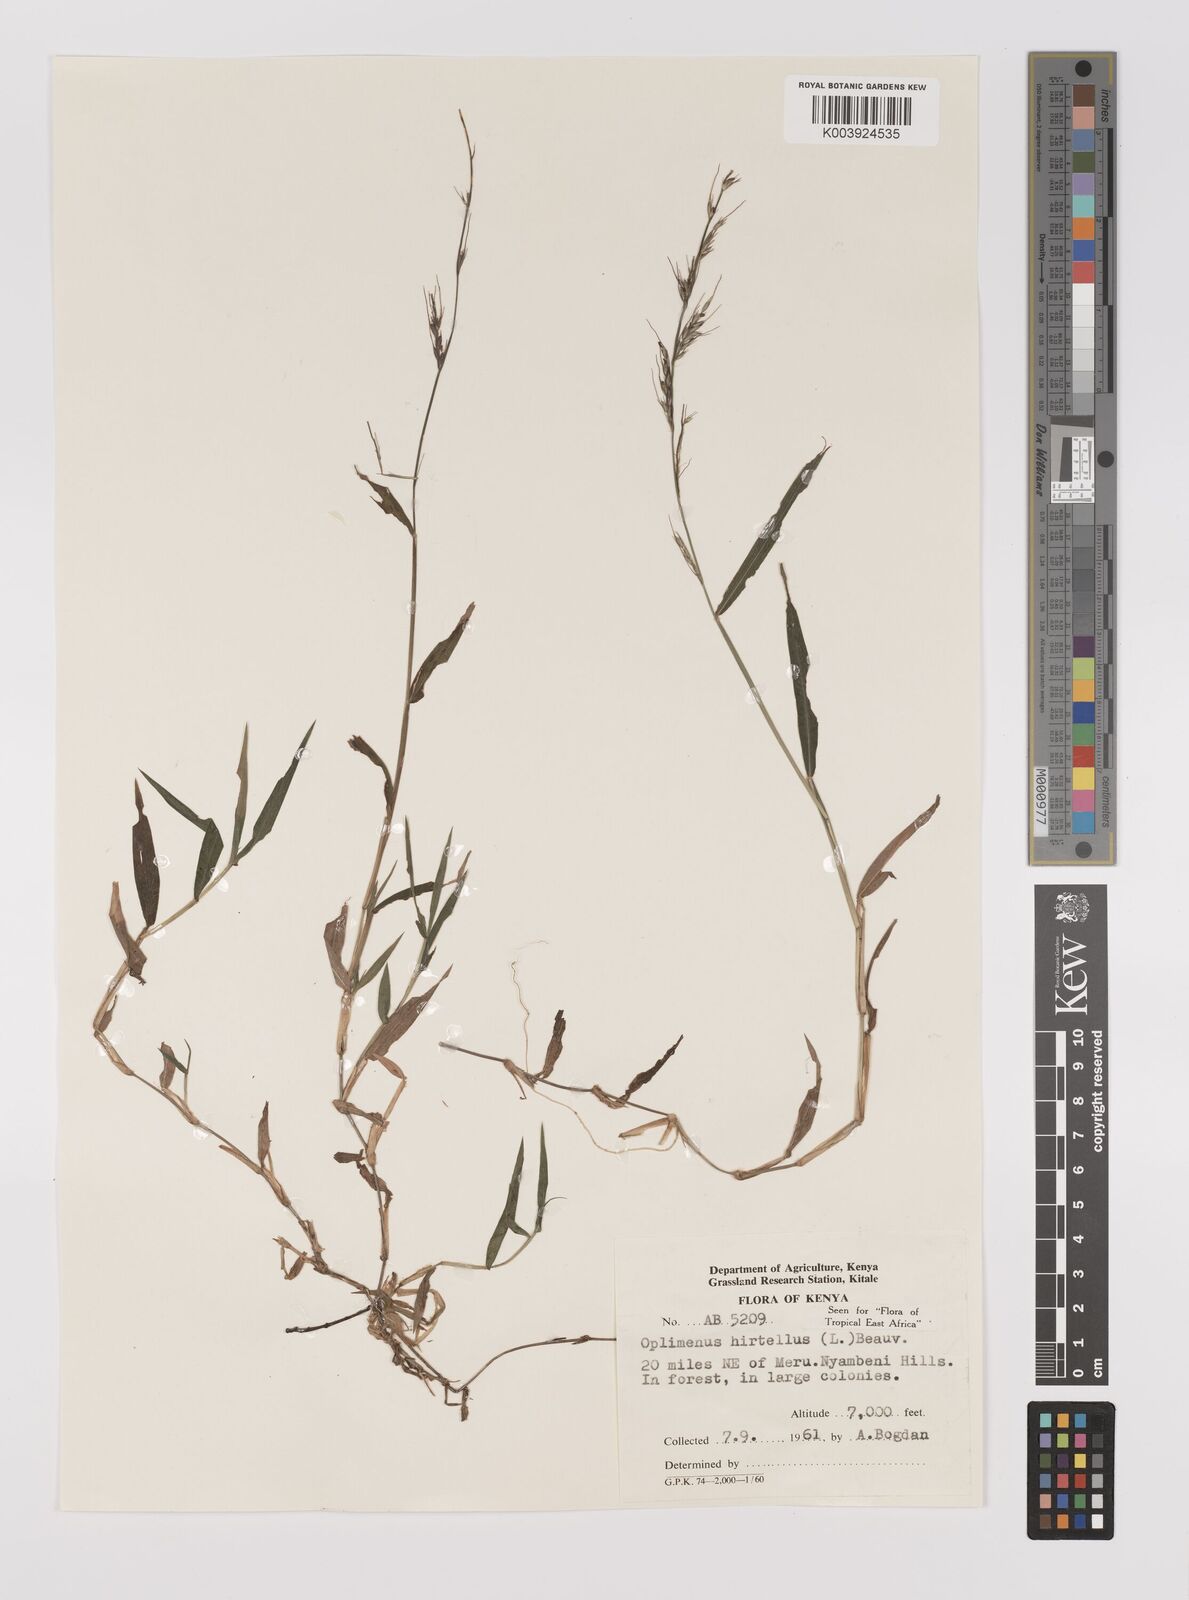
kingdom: Plantae
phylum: Tracheophyta
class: Liliopsida
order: Poales
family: Poaceae
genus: Oplismenus
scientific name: Oplismenus hirtellus
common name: Basketgrass
